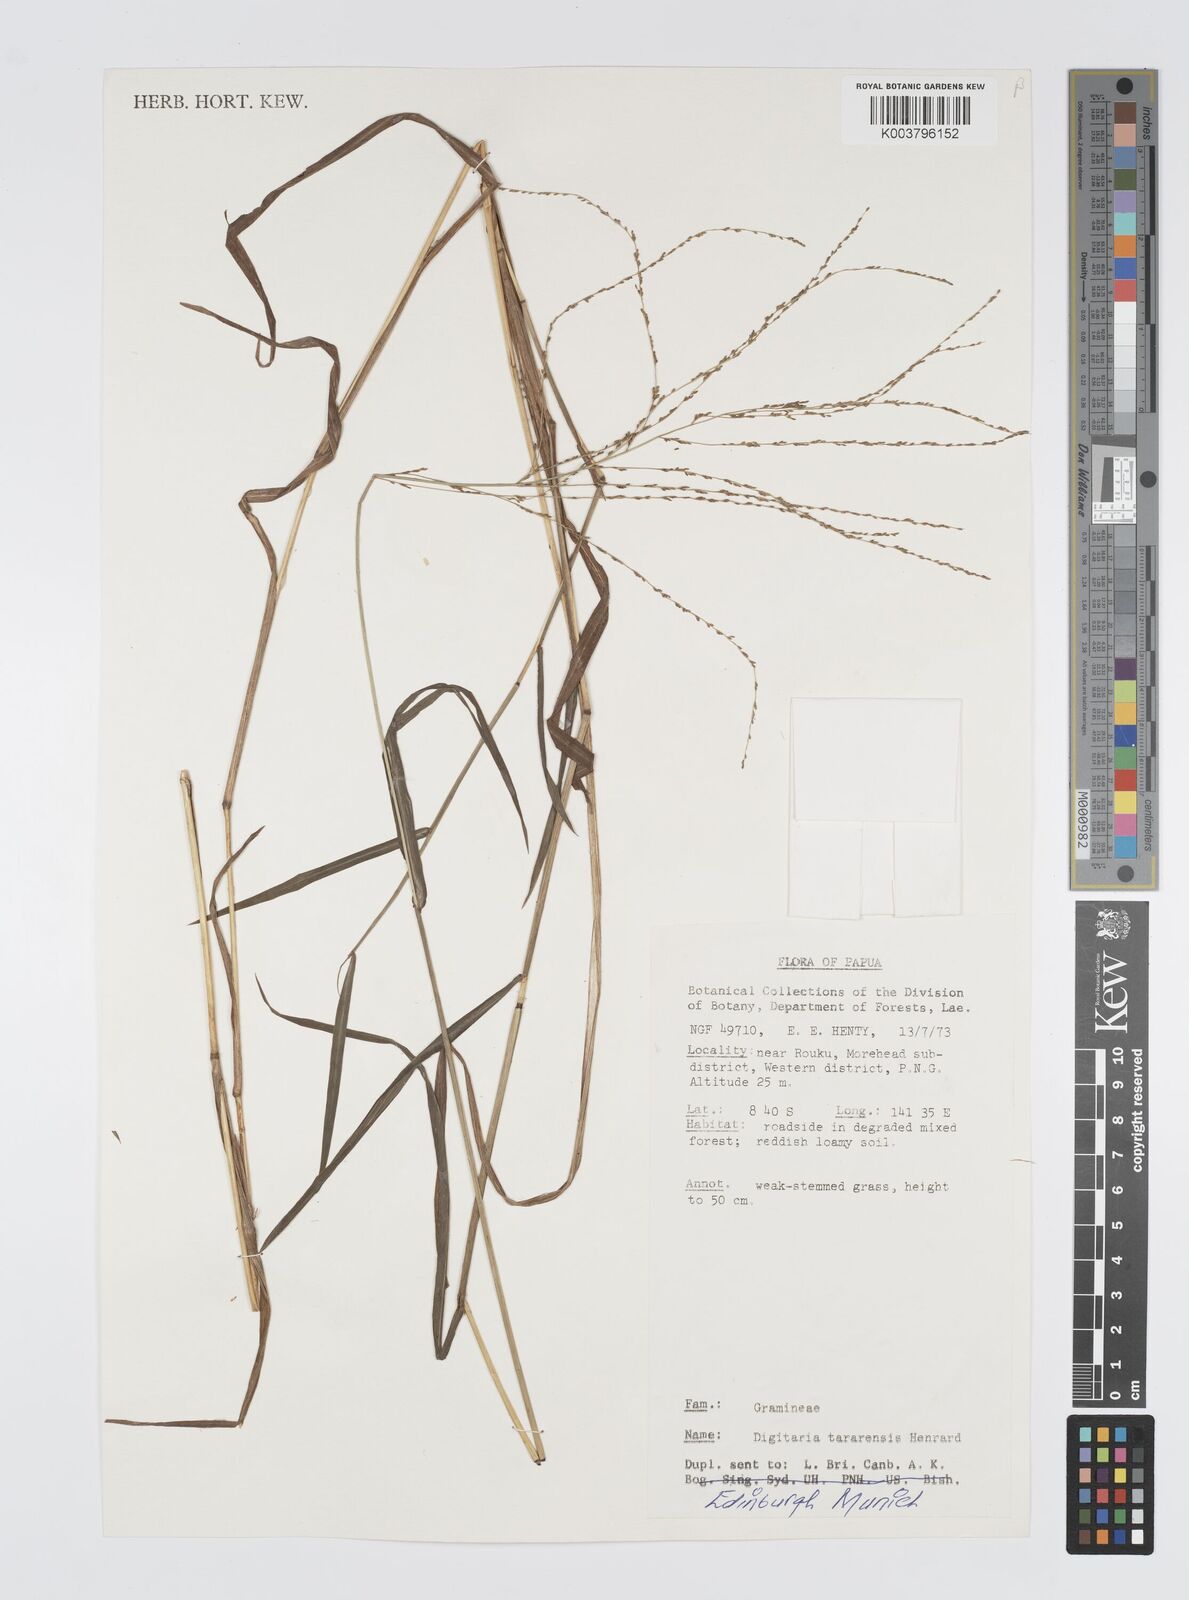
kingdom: Plantae
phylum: Tracheophyta
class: Liliopsida
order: Poales
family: Poaceae
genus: Digitaria
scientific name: Digitaria tararensis
